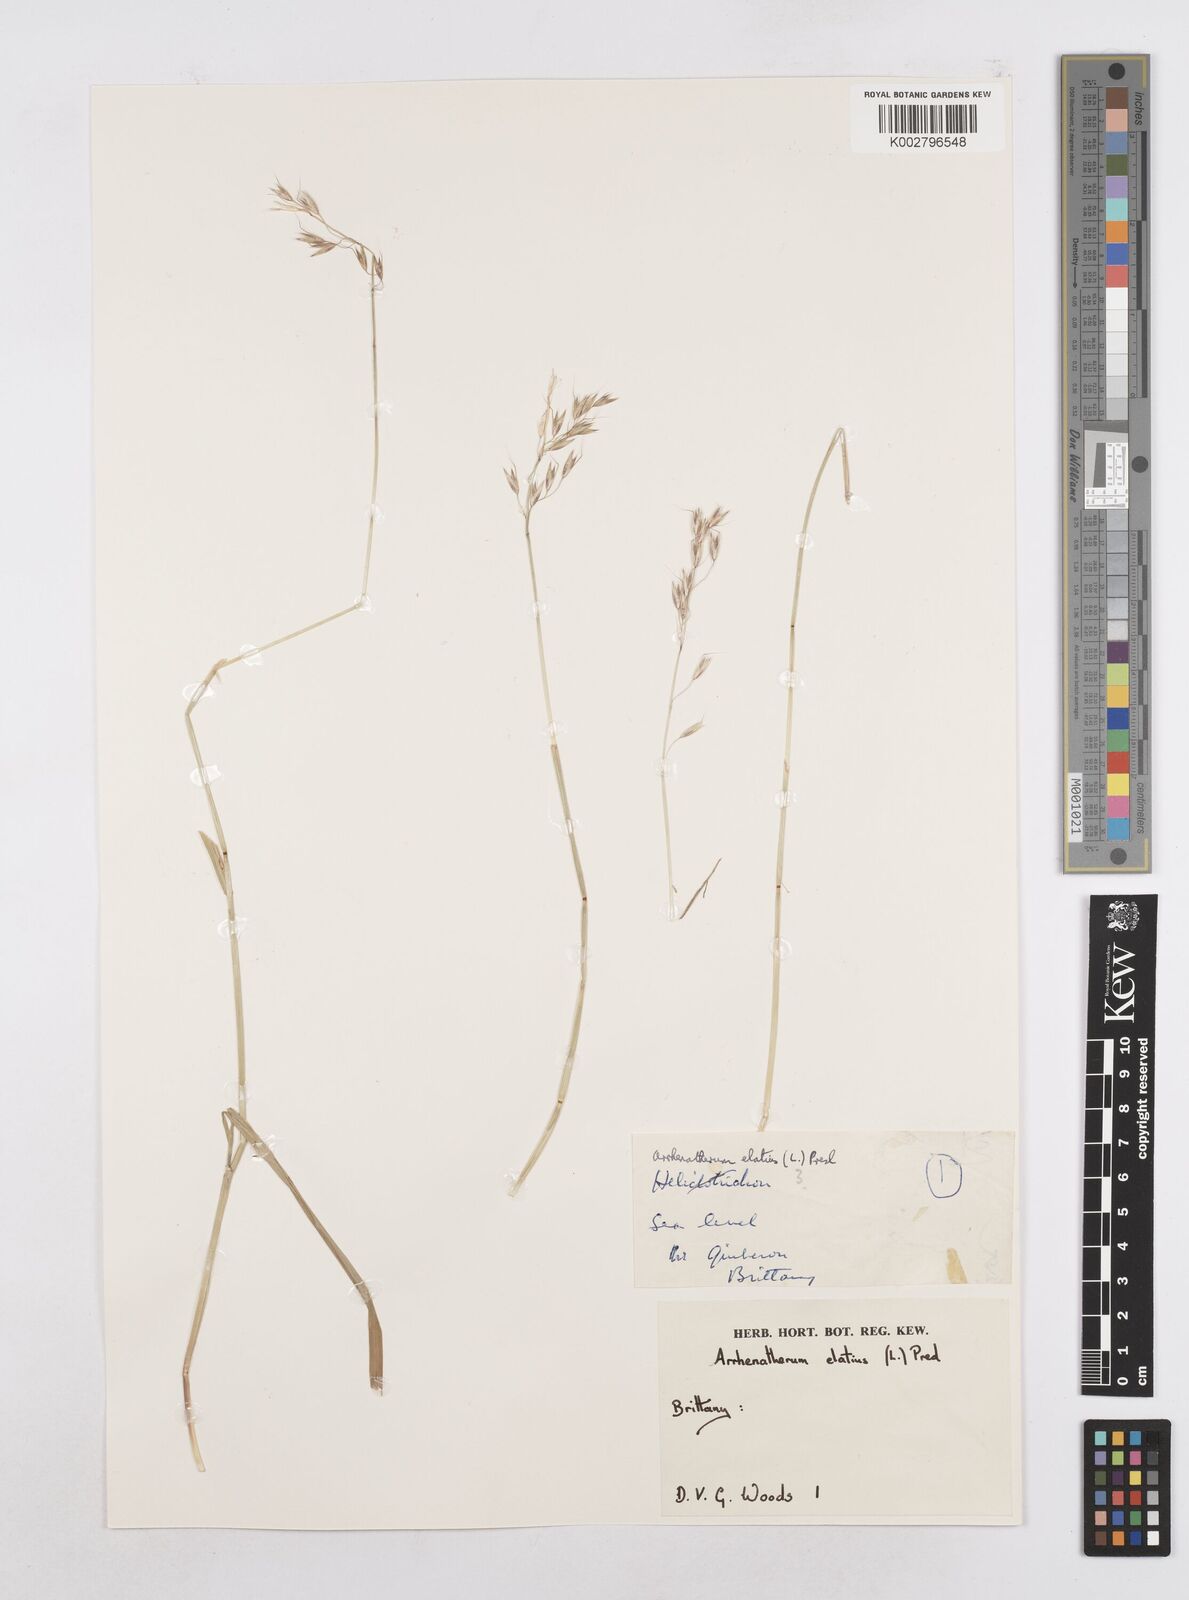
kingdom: Plantae
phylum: Tracheophyta
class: Liliopsida
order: Poales
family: Poaceae
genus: Arrhenatherum
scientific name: Arrhenatherum elatius
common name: Tall oatgrass
